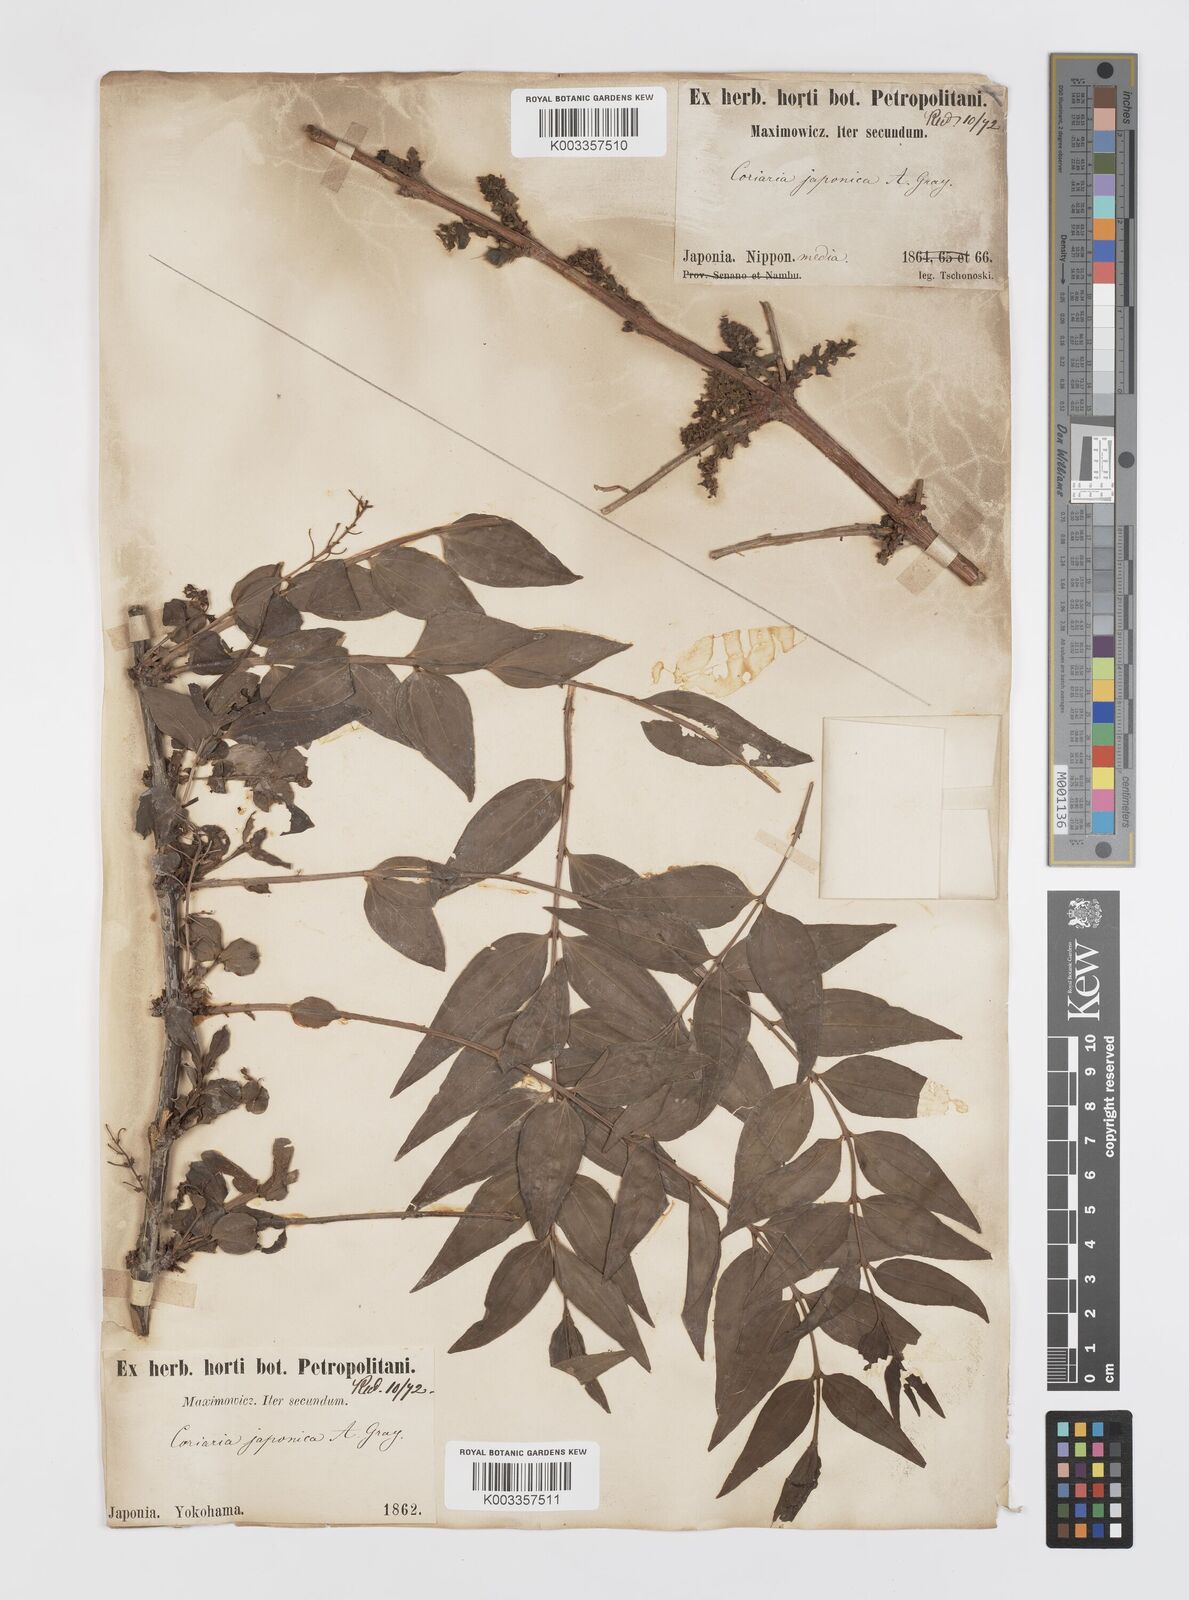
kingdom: Plantae
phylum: Tracheophyta
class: Magnoliopsida
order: Cucurbitales
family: Coriariaceae
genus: Coriaria
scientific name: Coriaria japonica
